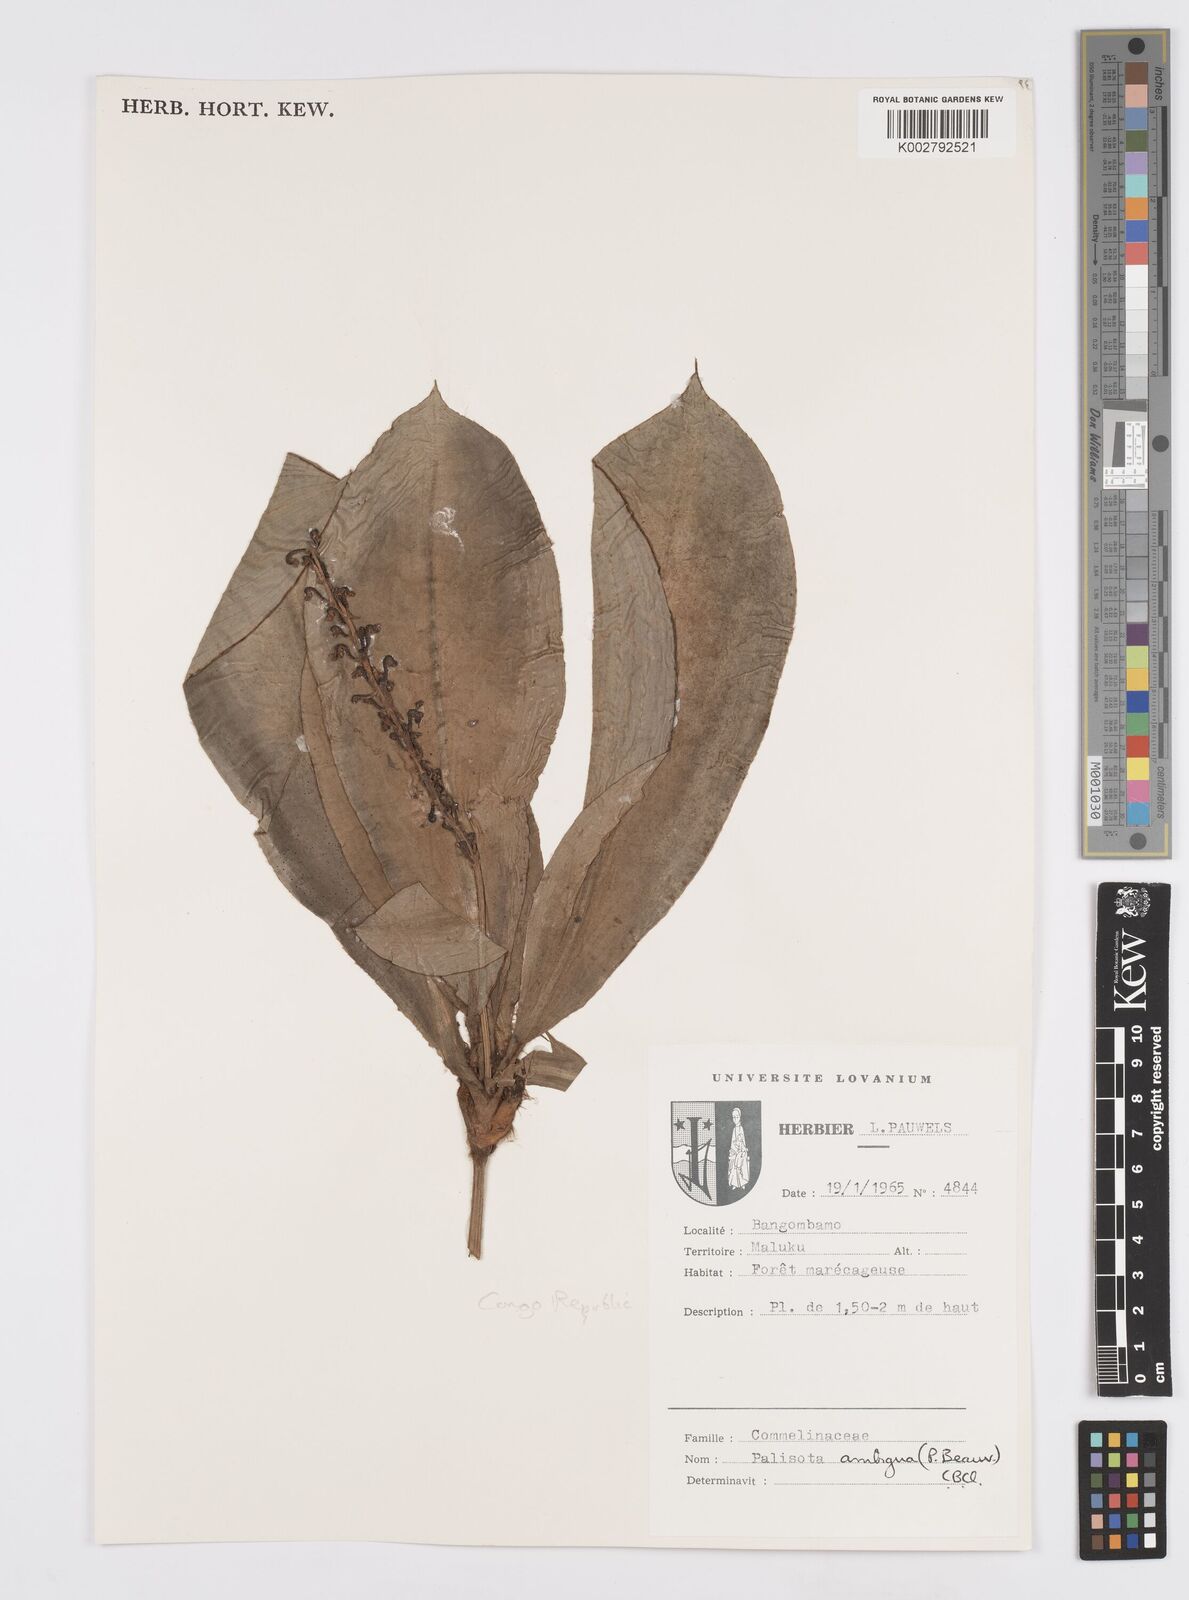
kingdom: Plantae
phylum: Tracheophyta
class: Liliopsida
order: Commelinales
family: Commelinaceae
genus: Palisota
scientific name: Palisota ambigua
